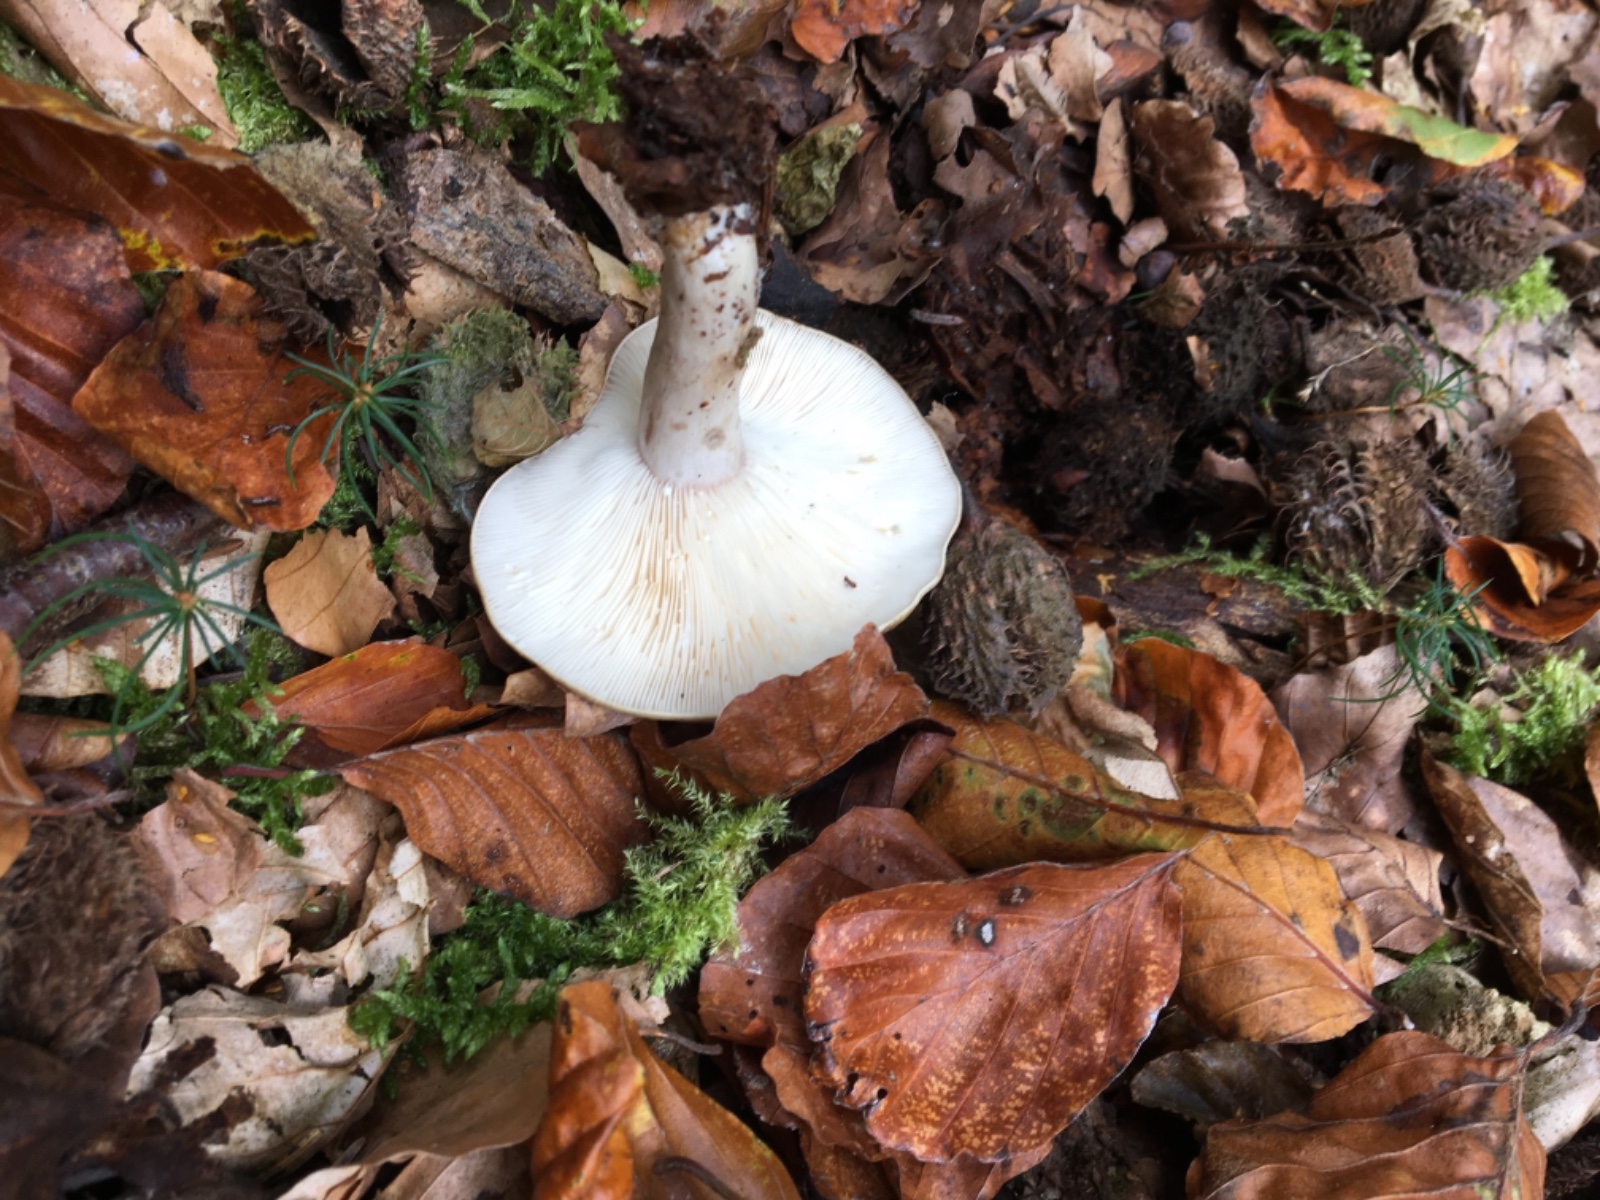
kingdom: Fungi
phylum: Basidiomycota
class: Agaricomycetes
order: Russulales
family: Russulaceae
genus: Lactarius
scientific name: Lactarius blennius
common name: dråbeplettet mælkehat
